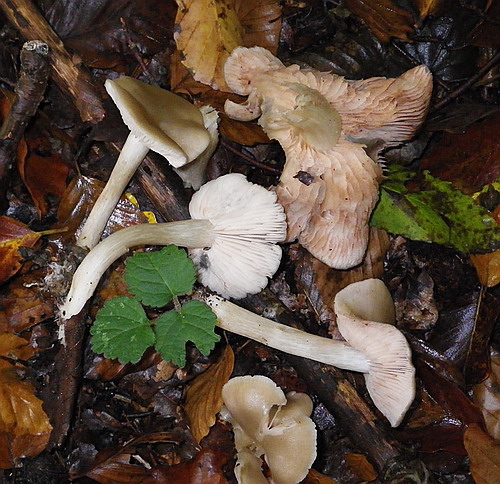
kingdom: Fungi
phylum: Basidiomycota
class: Agaricomycetes
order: Agaricales
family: Entolomataceae
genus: Entoloma
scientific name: Entoloma rhodopolium
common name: skov-rødblad
